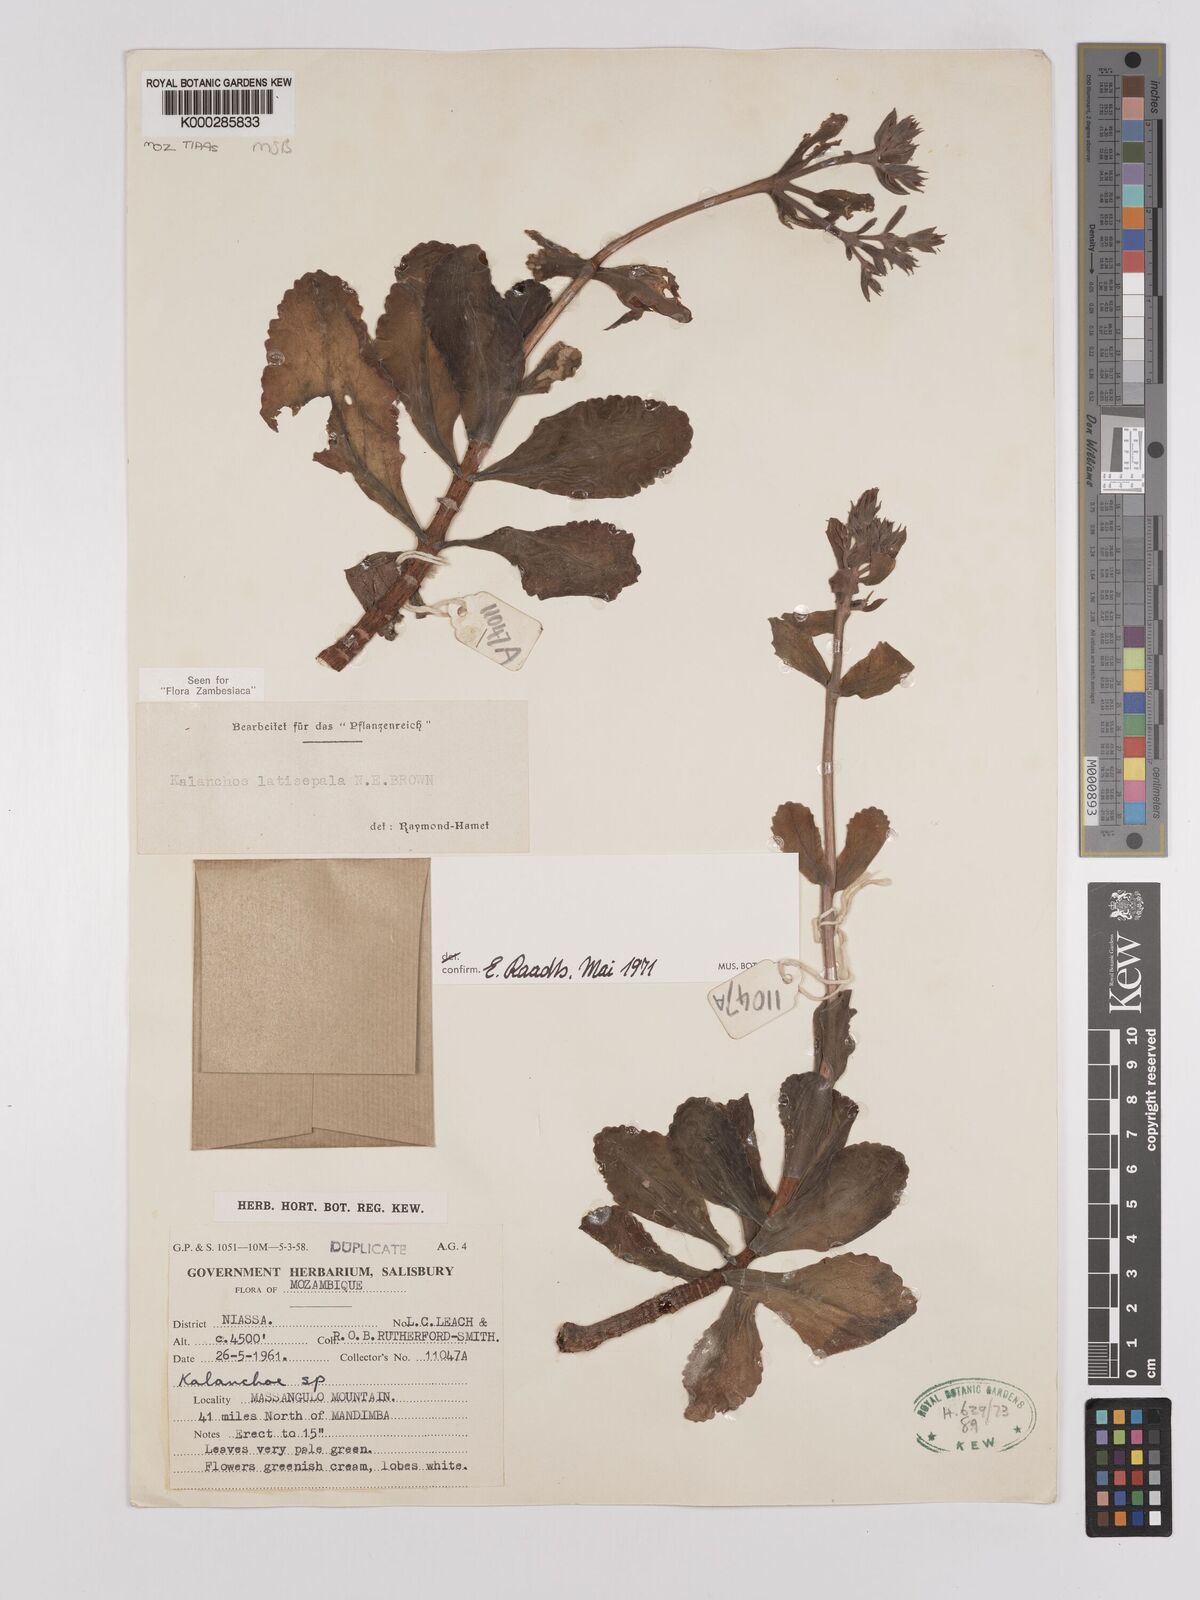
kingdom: Plantae
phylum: Tracheophyta
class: Magnoliopsida
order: Saxifragales
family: Crassulaceae
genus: Kalanchoe
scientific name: Kalanchoe latisepala
